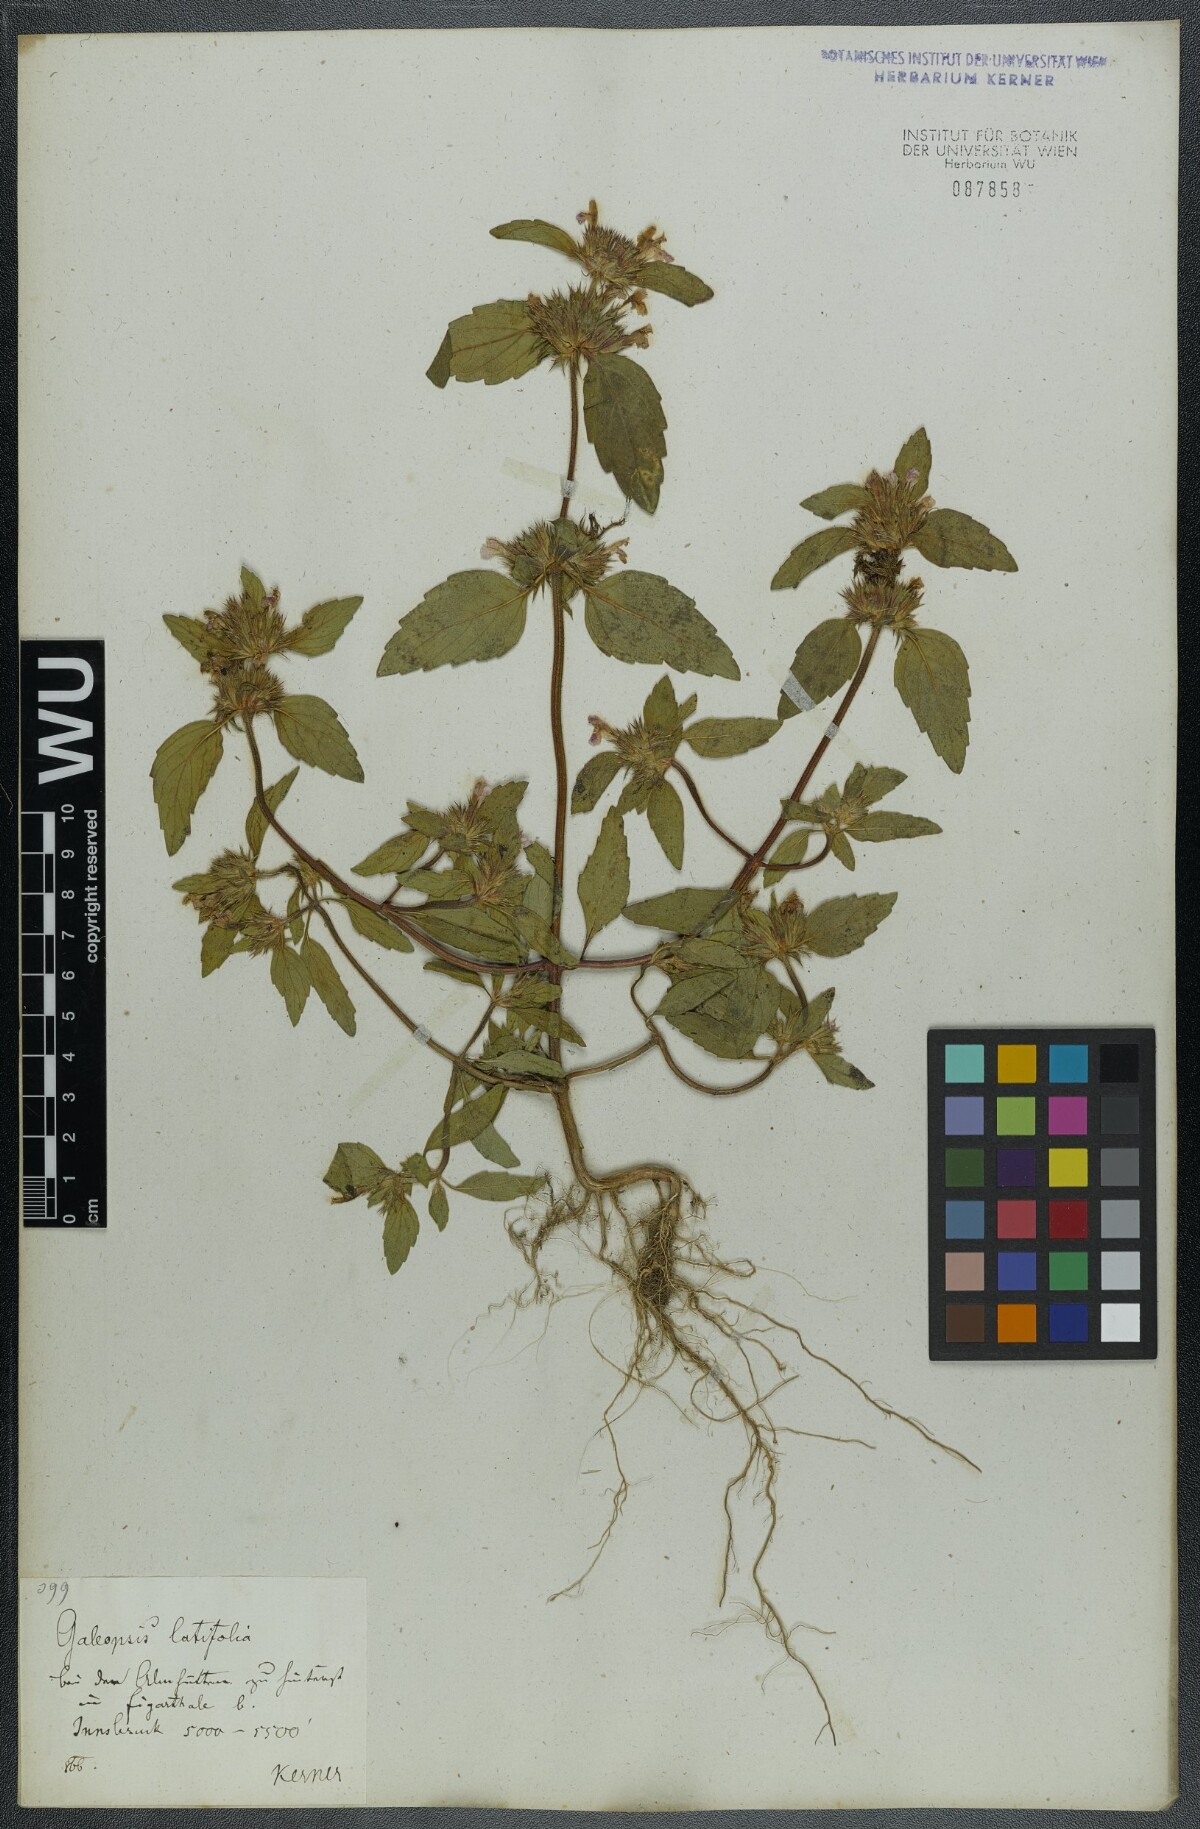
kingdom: Plantae
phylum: Tracheophyta
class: Magnoliopsida
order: Lamiales
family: Lamiaceae
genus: Galeopsis
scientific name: Galeopsis ladanum
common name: Broad-leaved hemp-nettle
